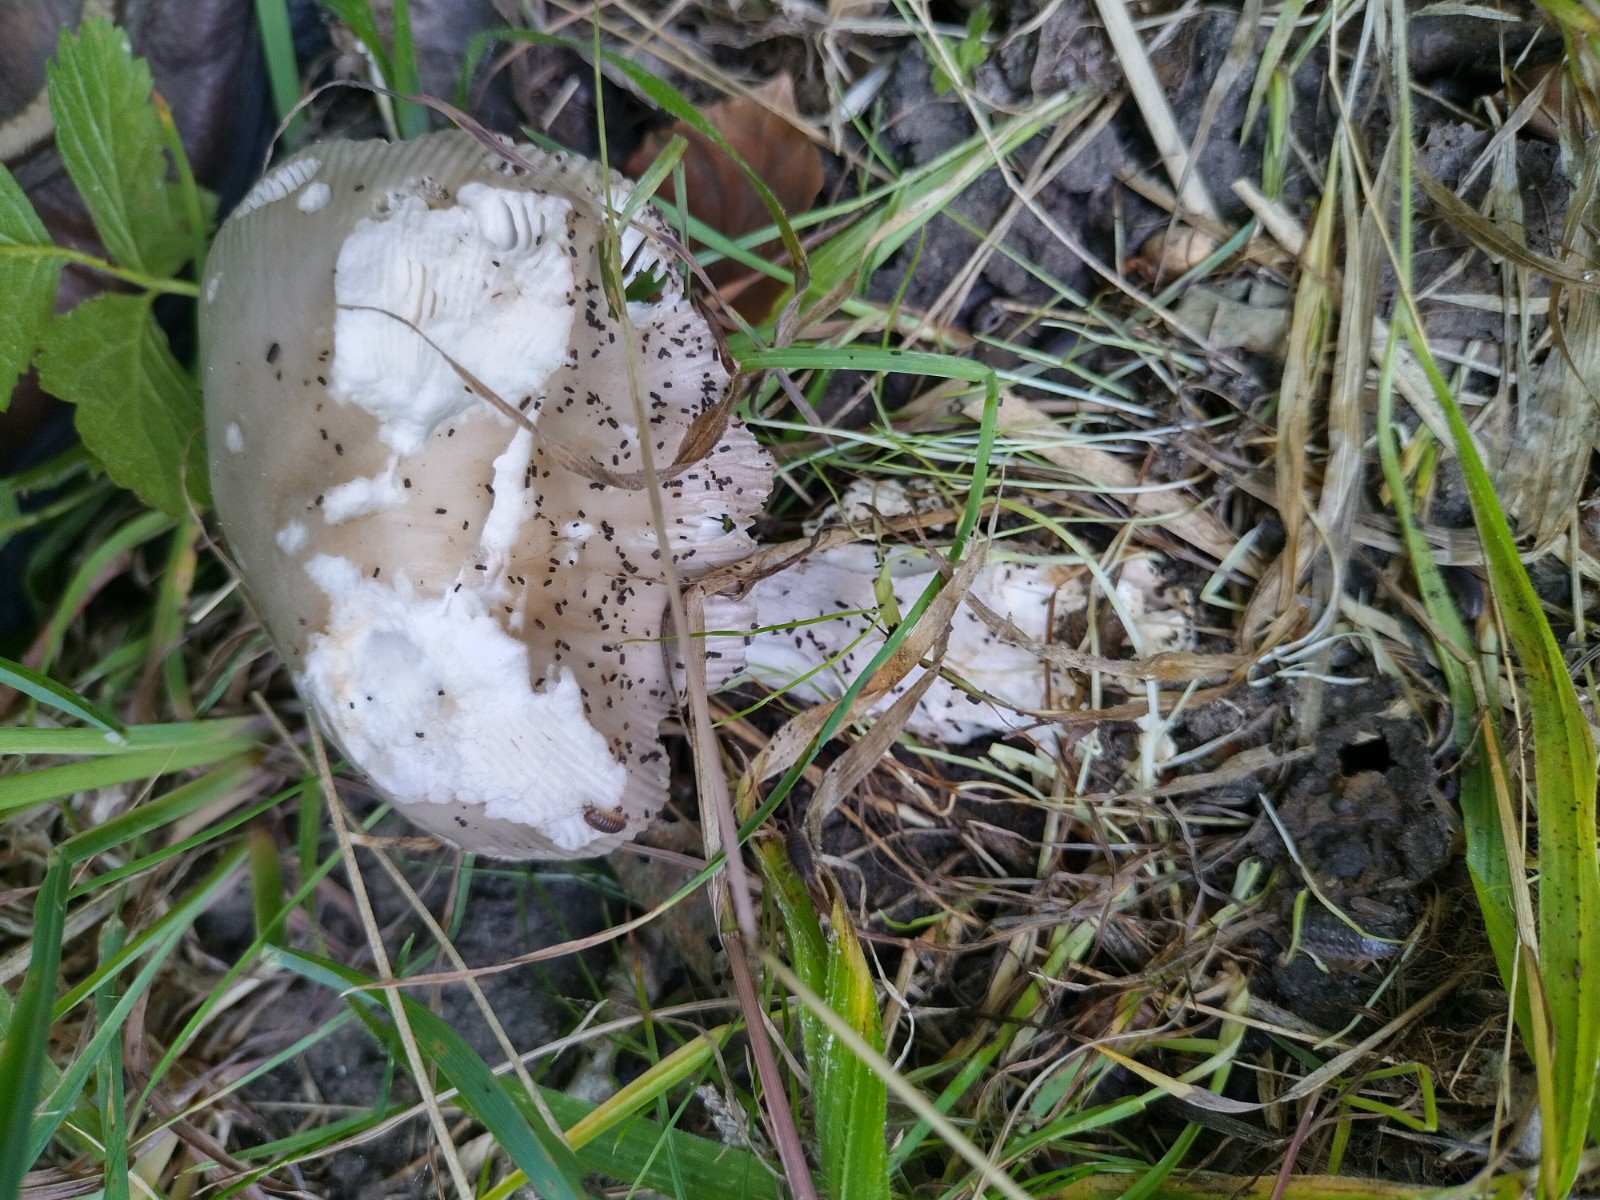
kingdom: Fungi
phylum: Basidiomycota
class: Agaricomycetes
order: Agaricales
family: Amanitaceae
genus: Amanita
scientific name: Amanita
